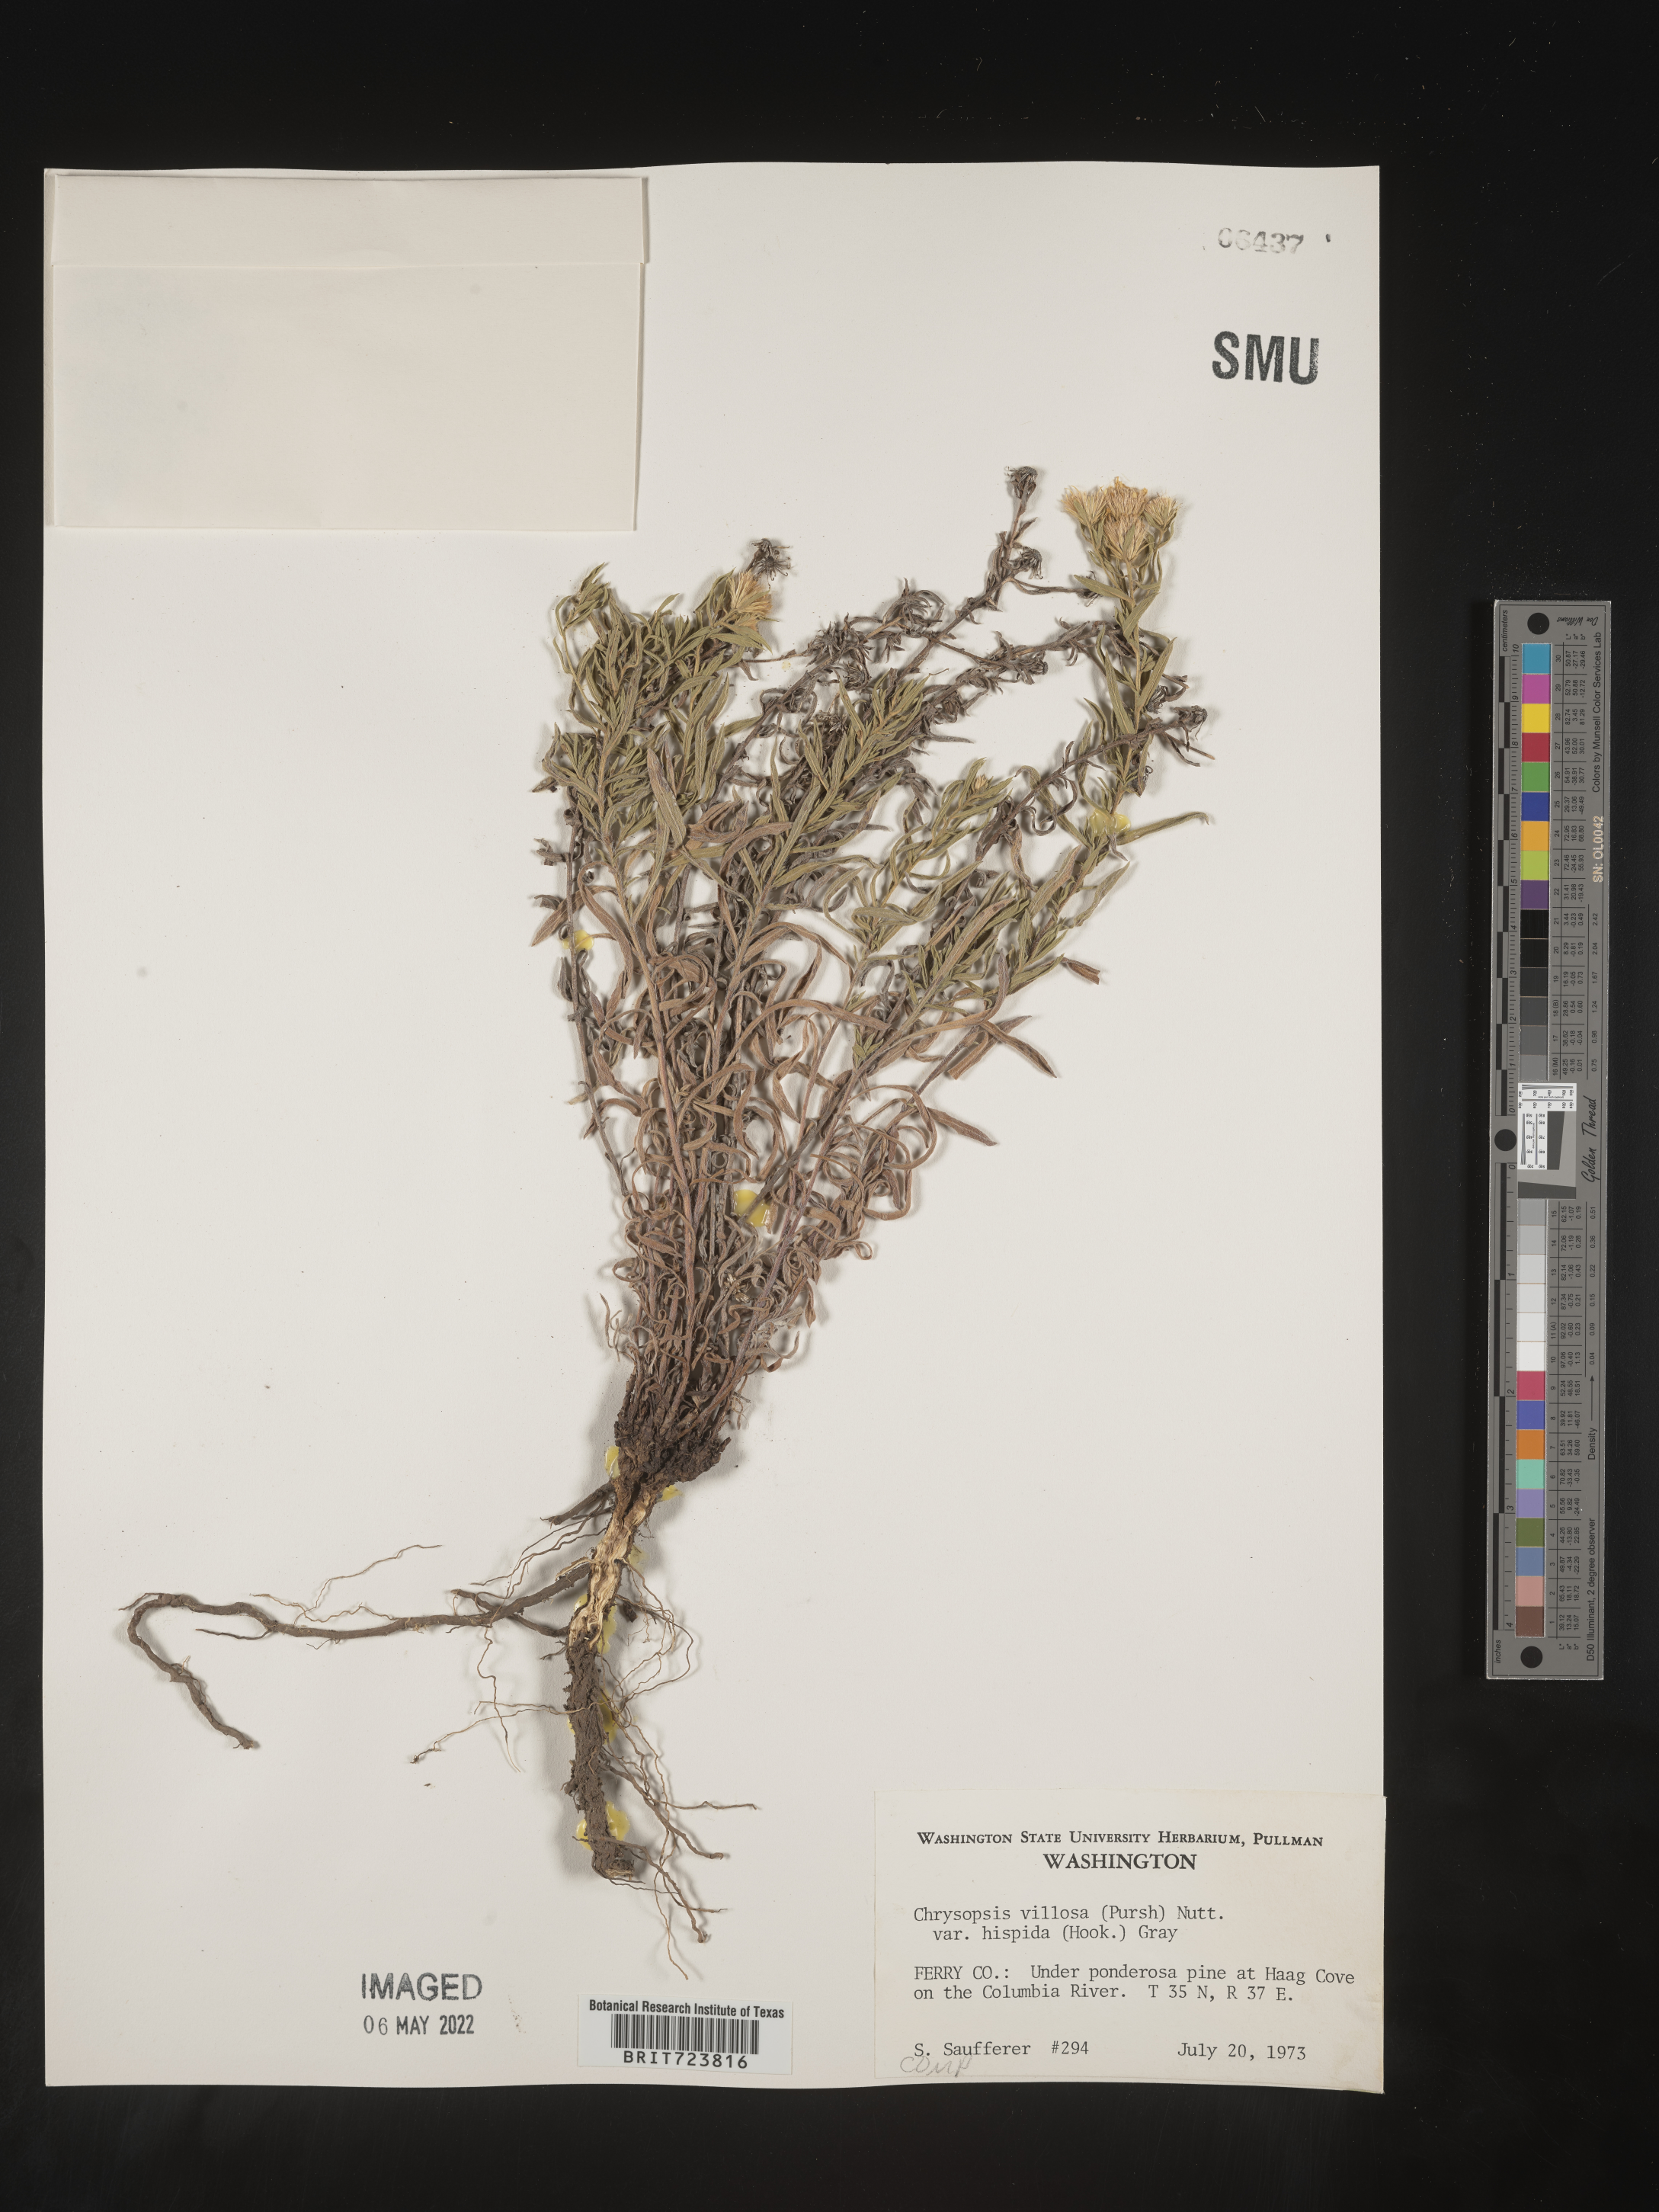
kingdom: Plantae
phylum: Tracheophyta
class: Magnoliopsida
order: Asterales
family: Asteraceae
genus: Heterotheca
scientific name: Heterotheca hirsuta
